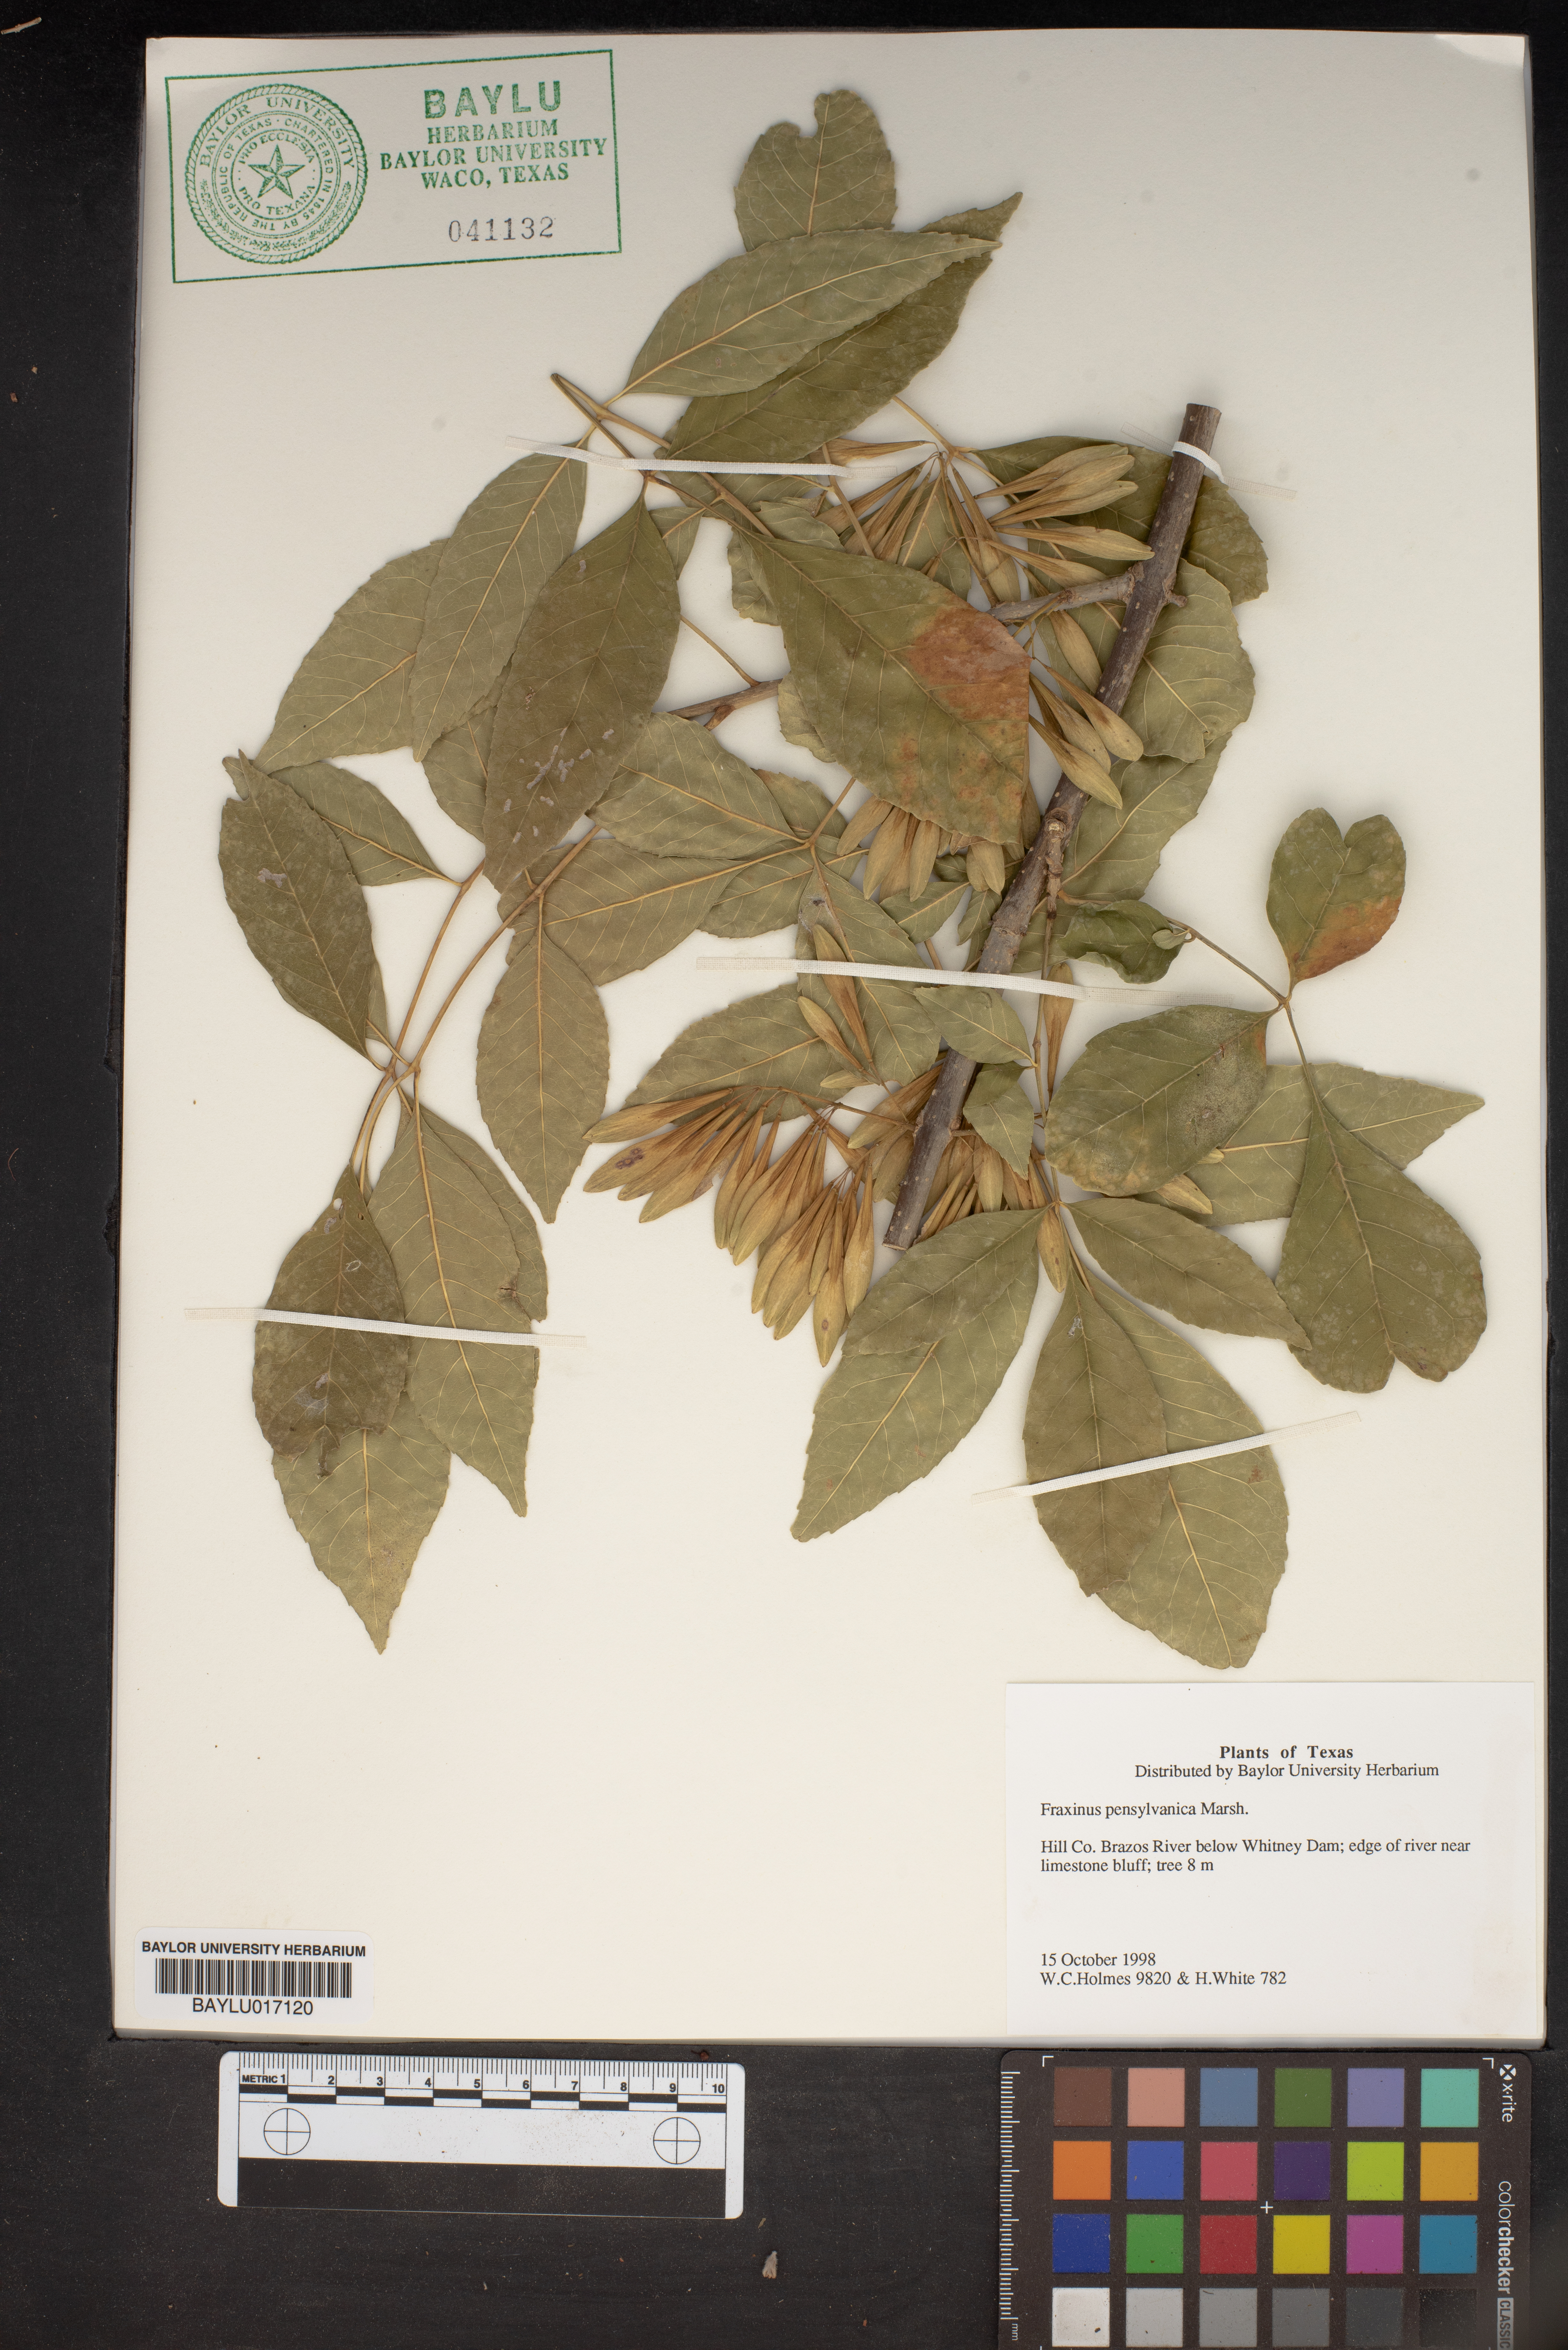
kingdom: Plantae
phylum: Tracheophyta
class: Magnoliopsida
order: Lamiales
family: Oleaceae
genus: Fraxinus
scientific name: Fraxinus pennsylvanica
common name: Green ash
